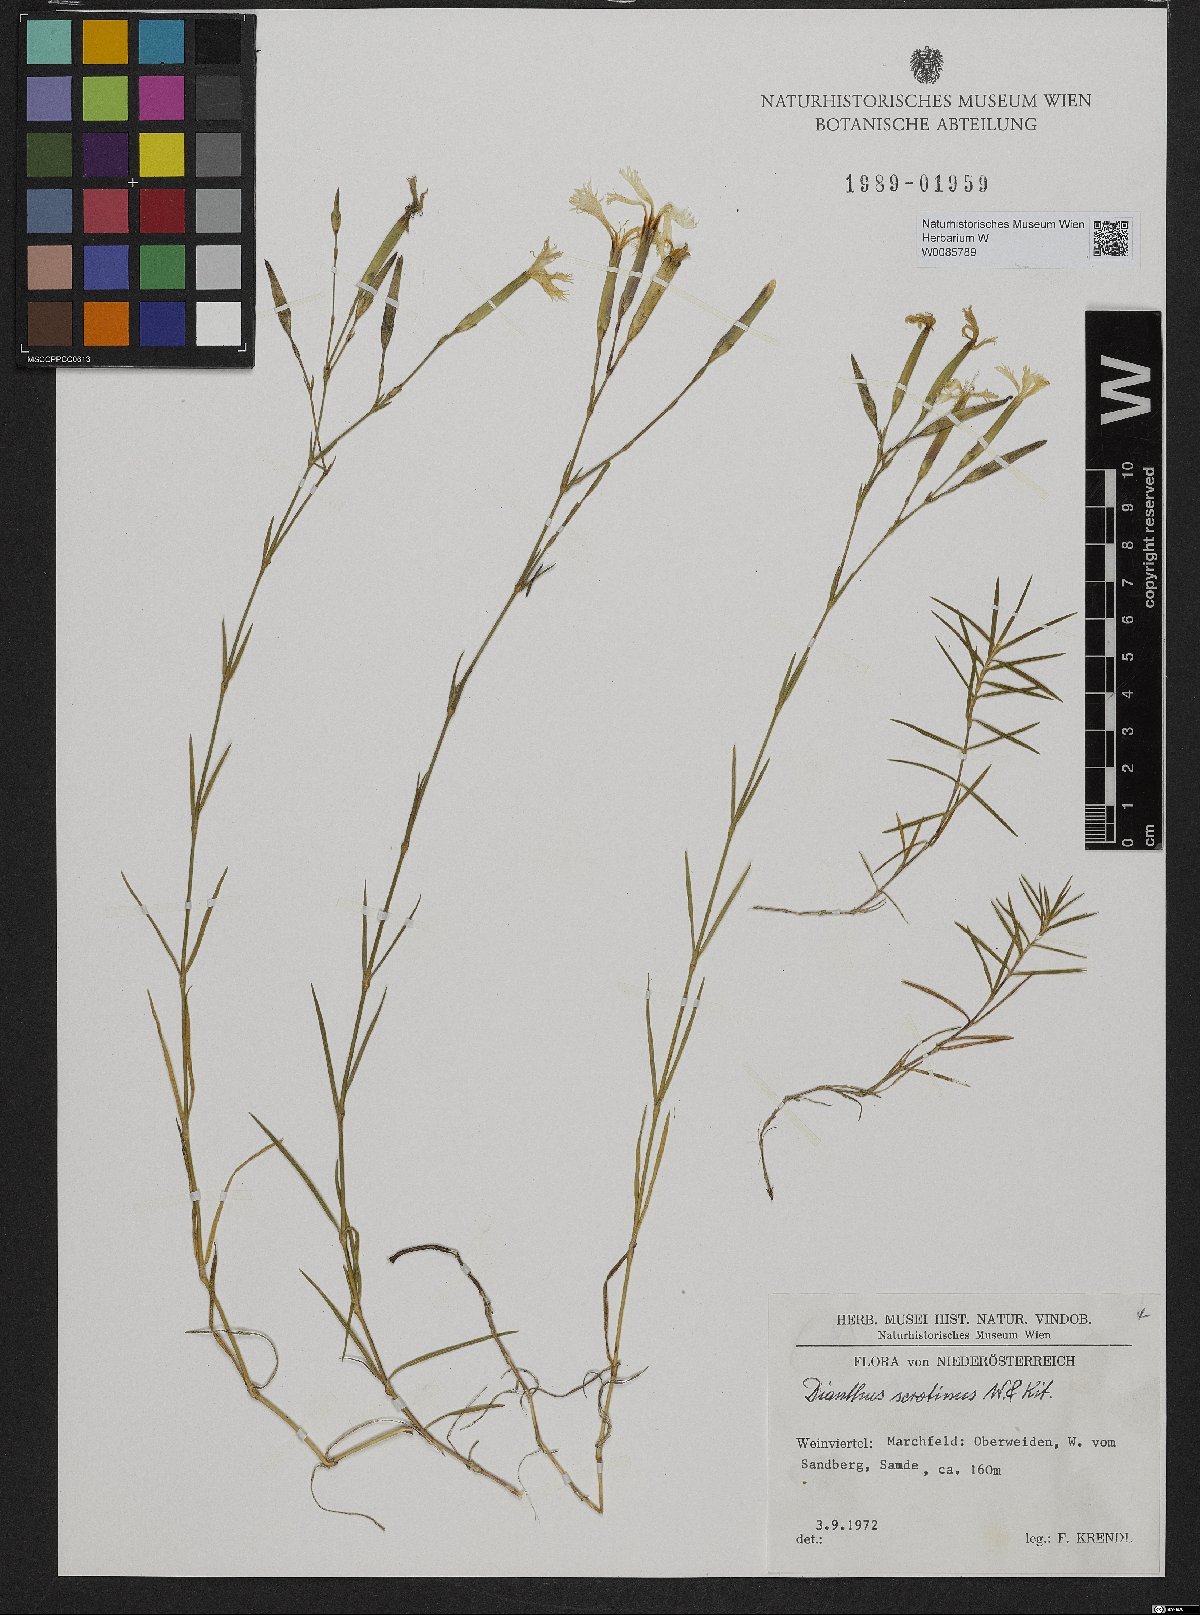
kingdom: Plantae
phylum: Tracheophyta
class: Magnoliopsida
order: Caryophyllales
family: Caryophyllaceae
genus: Dianthus
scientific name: Dianthus serotinus
